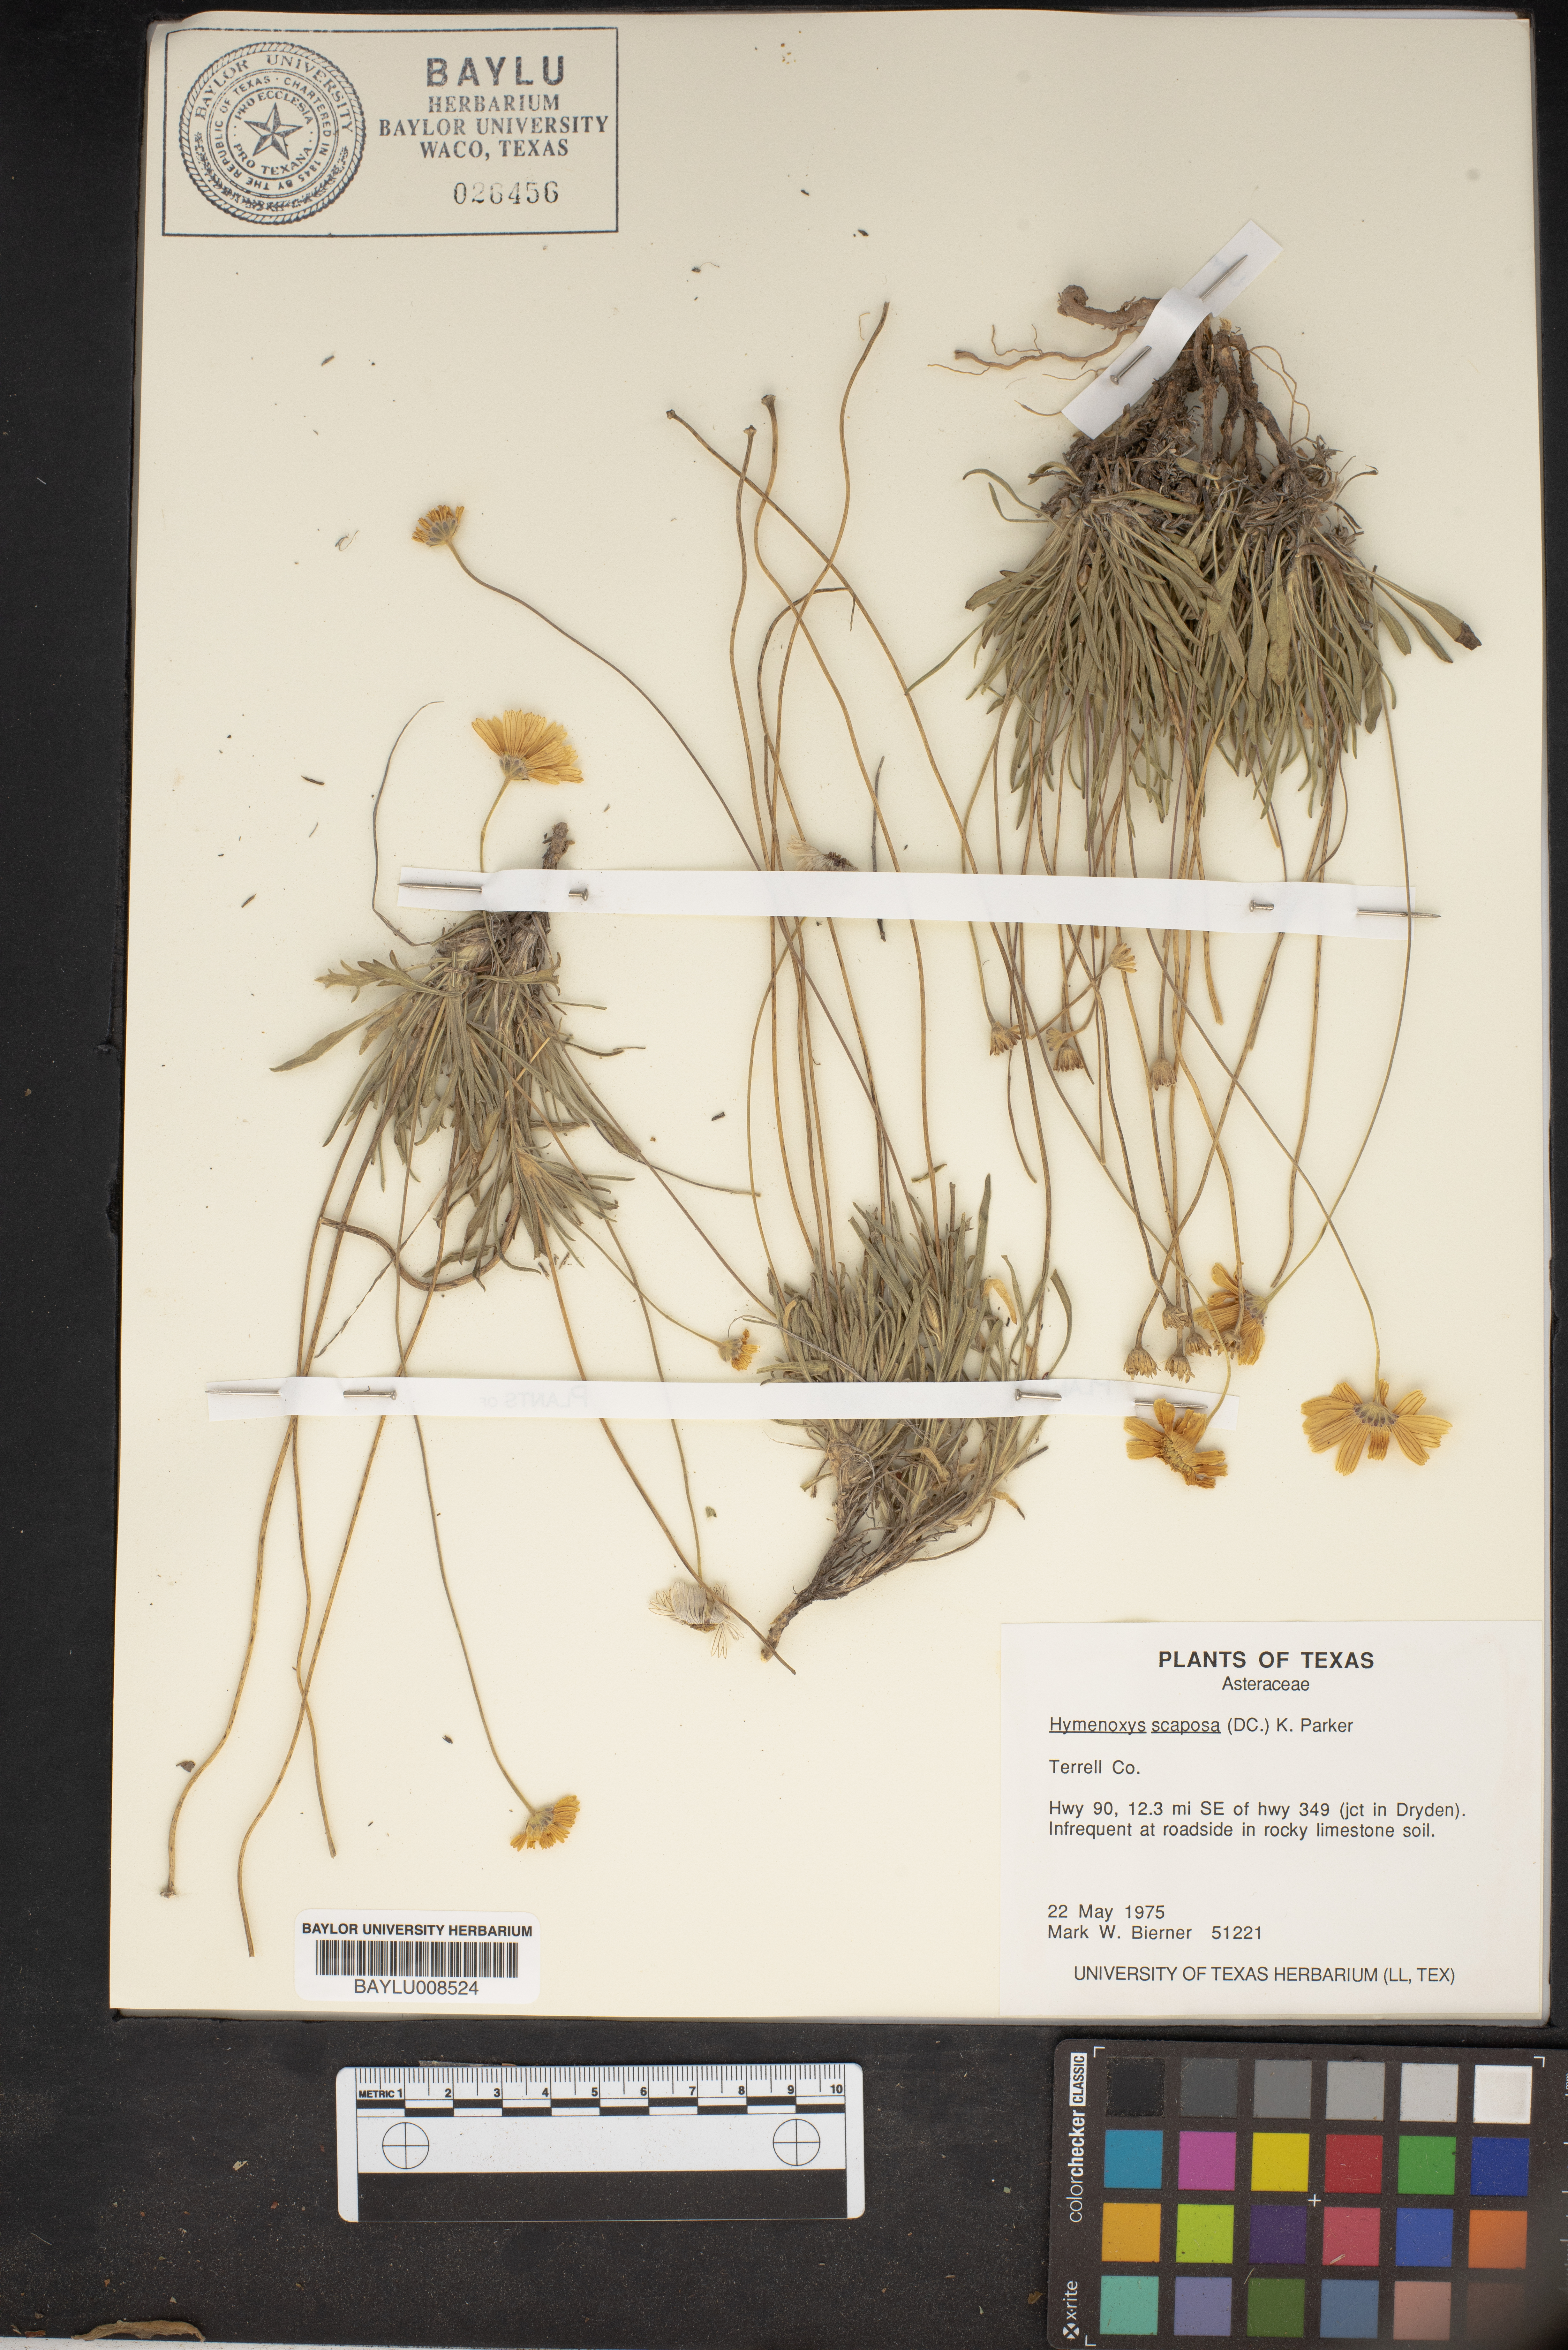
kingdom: Plantae
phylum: Tracheophyta
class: Magnoliopsida
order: Asterales
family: Asteraceae
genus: Tetraneuris
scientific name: Tetraneuris scaposa
